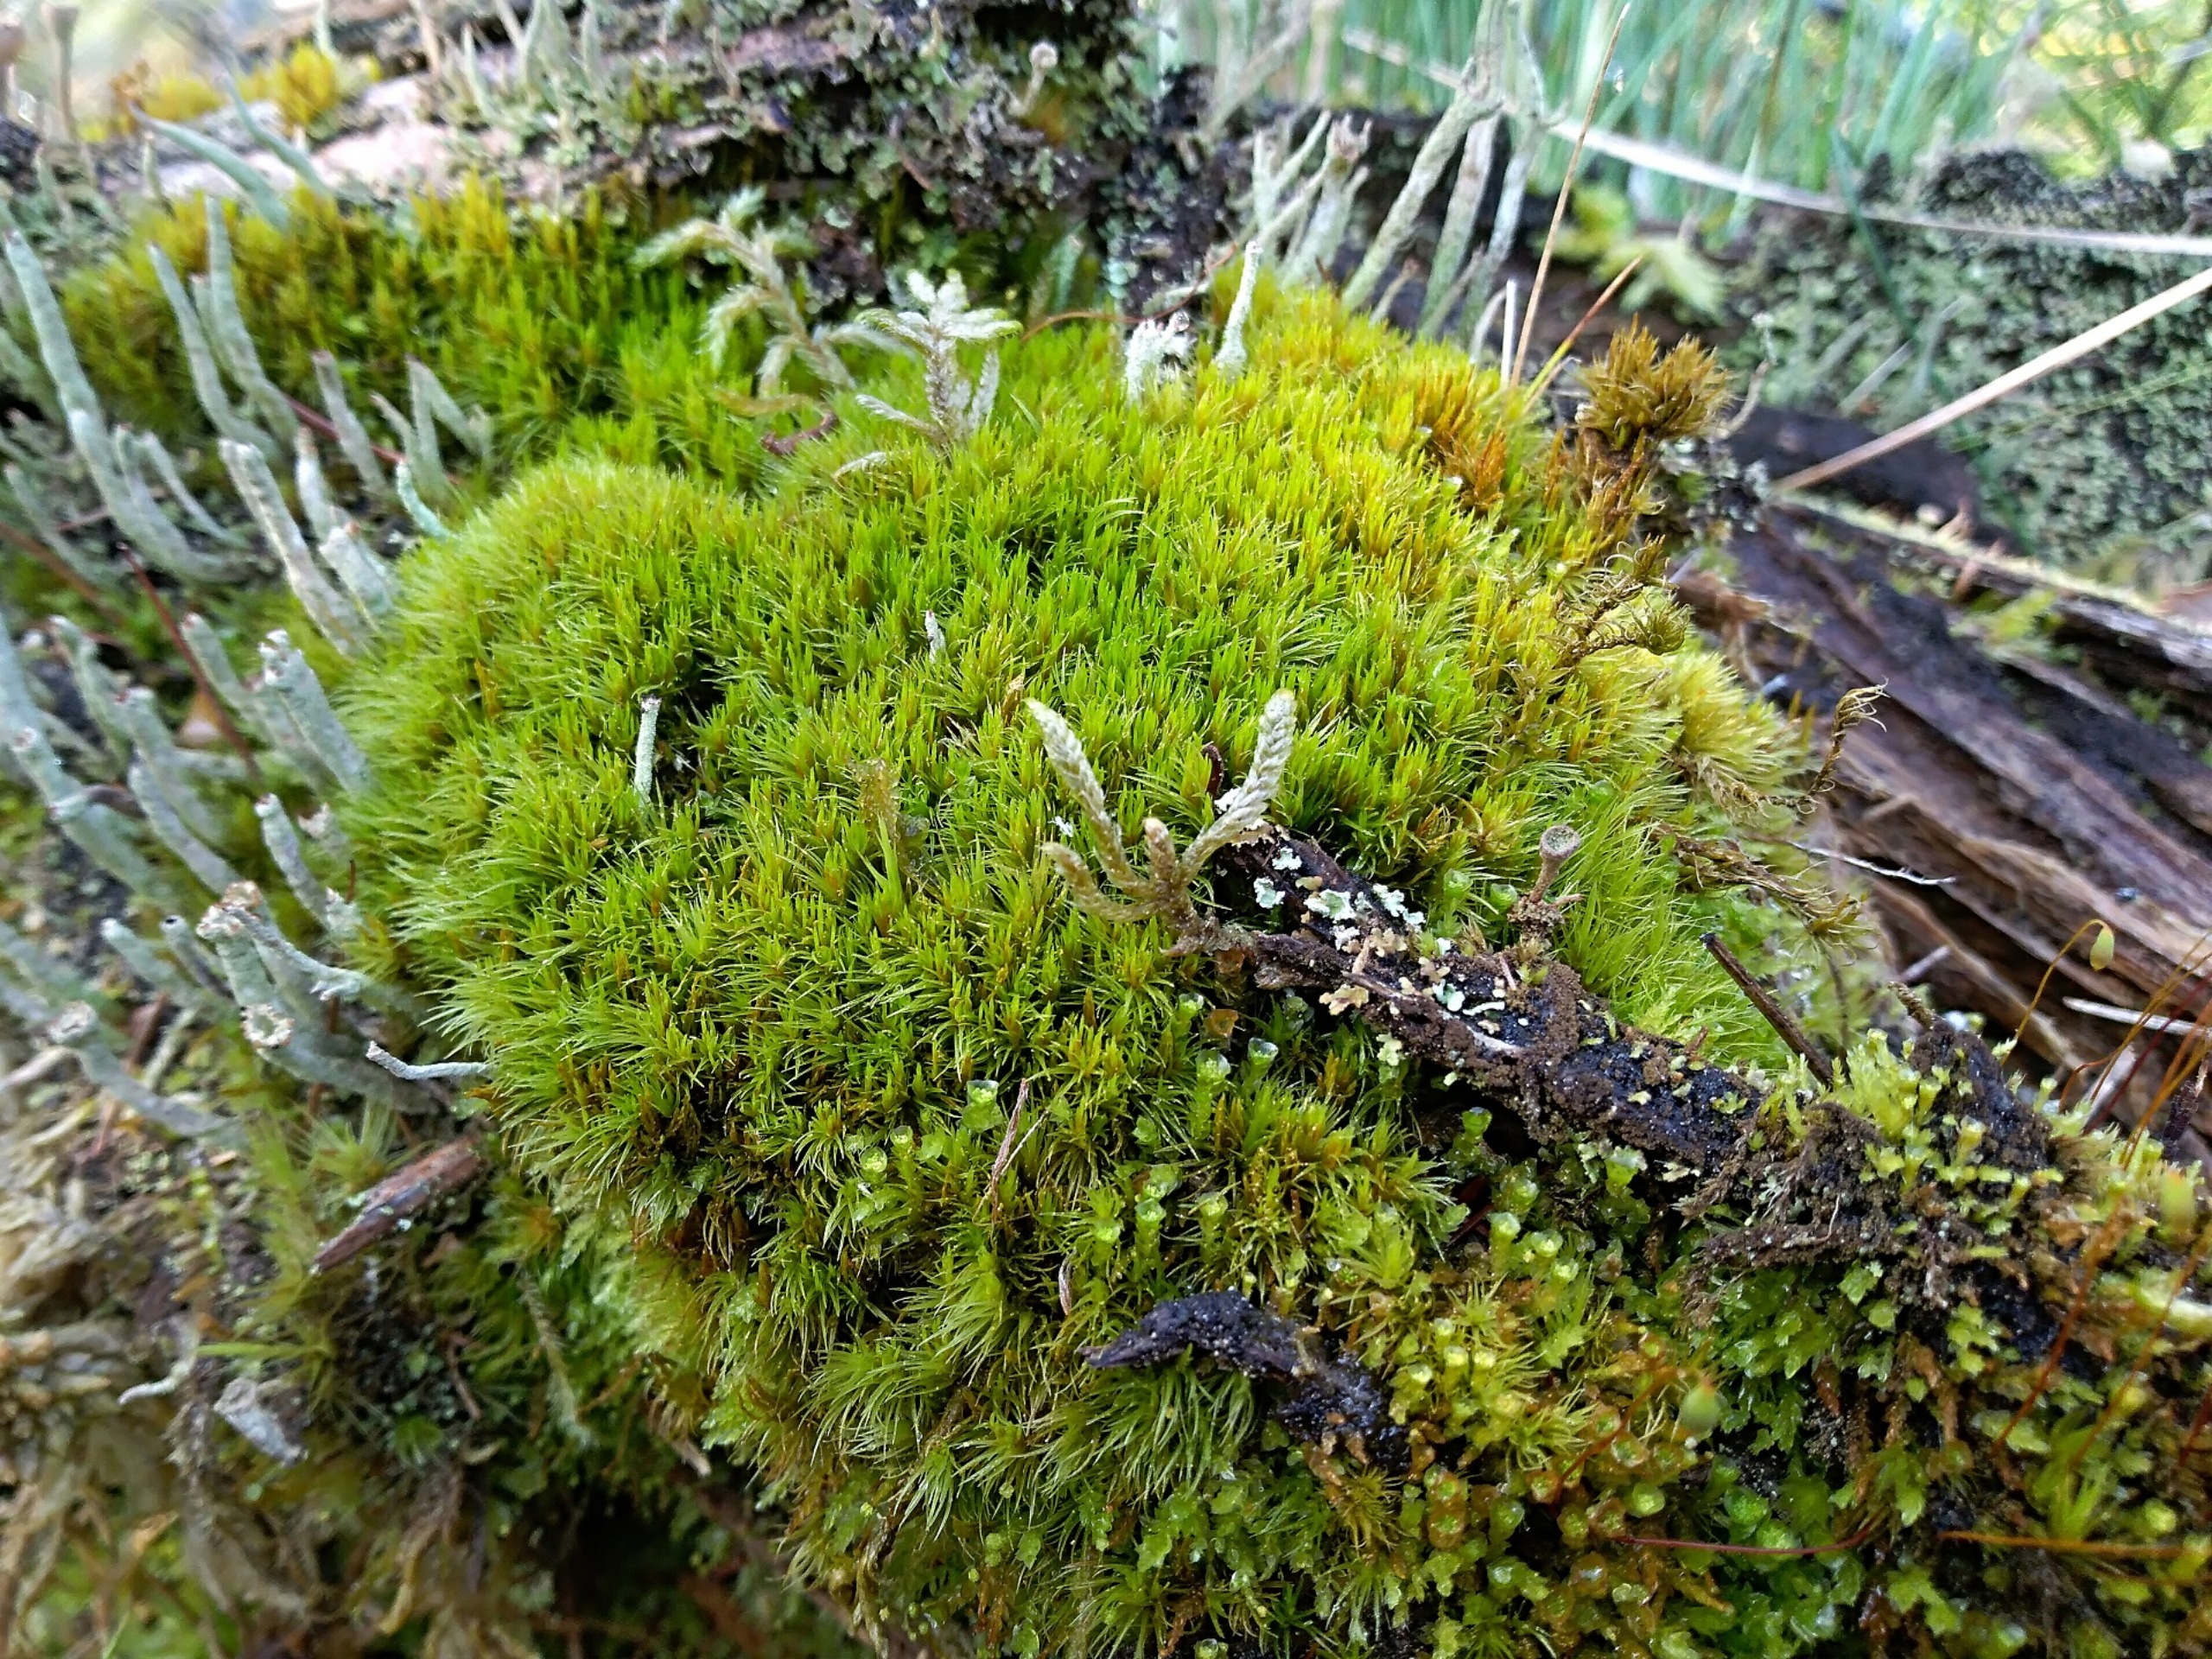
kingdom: Plantae
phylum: Bryophyta
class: Bryopsida
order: Dicranales
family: Dicranaceae
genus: Orthodicranum
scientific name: Orthodicranum flagellare
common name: Mangegrenet tyndvinge
